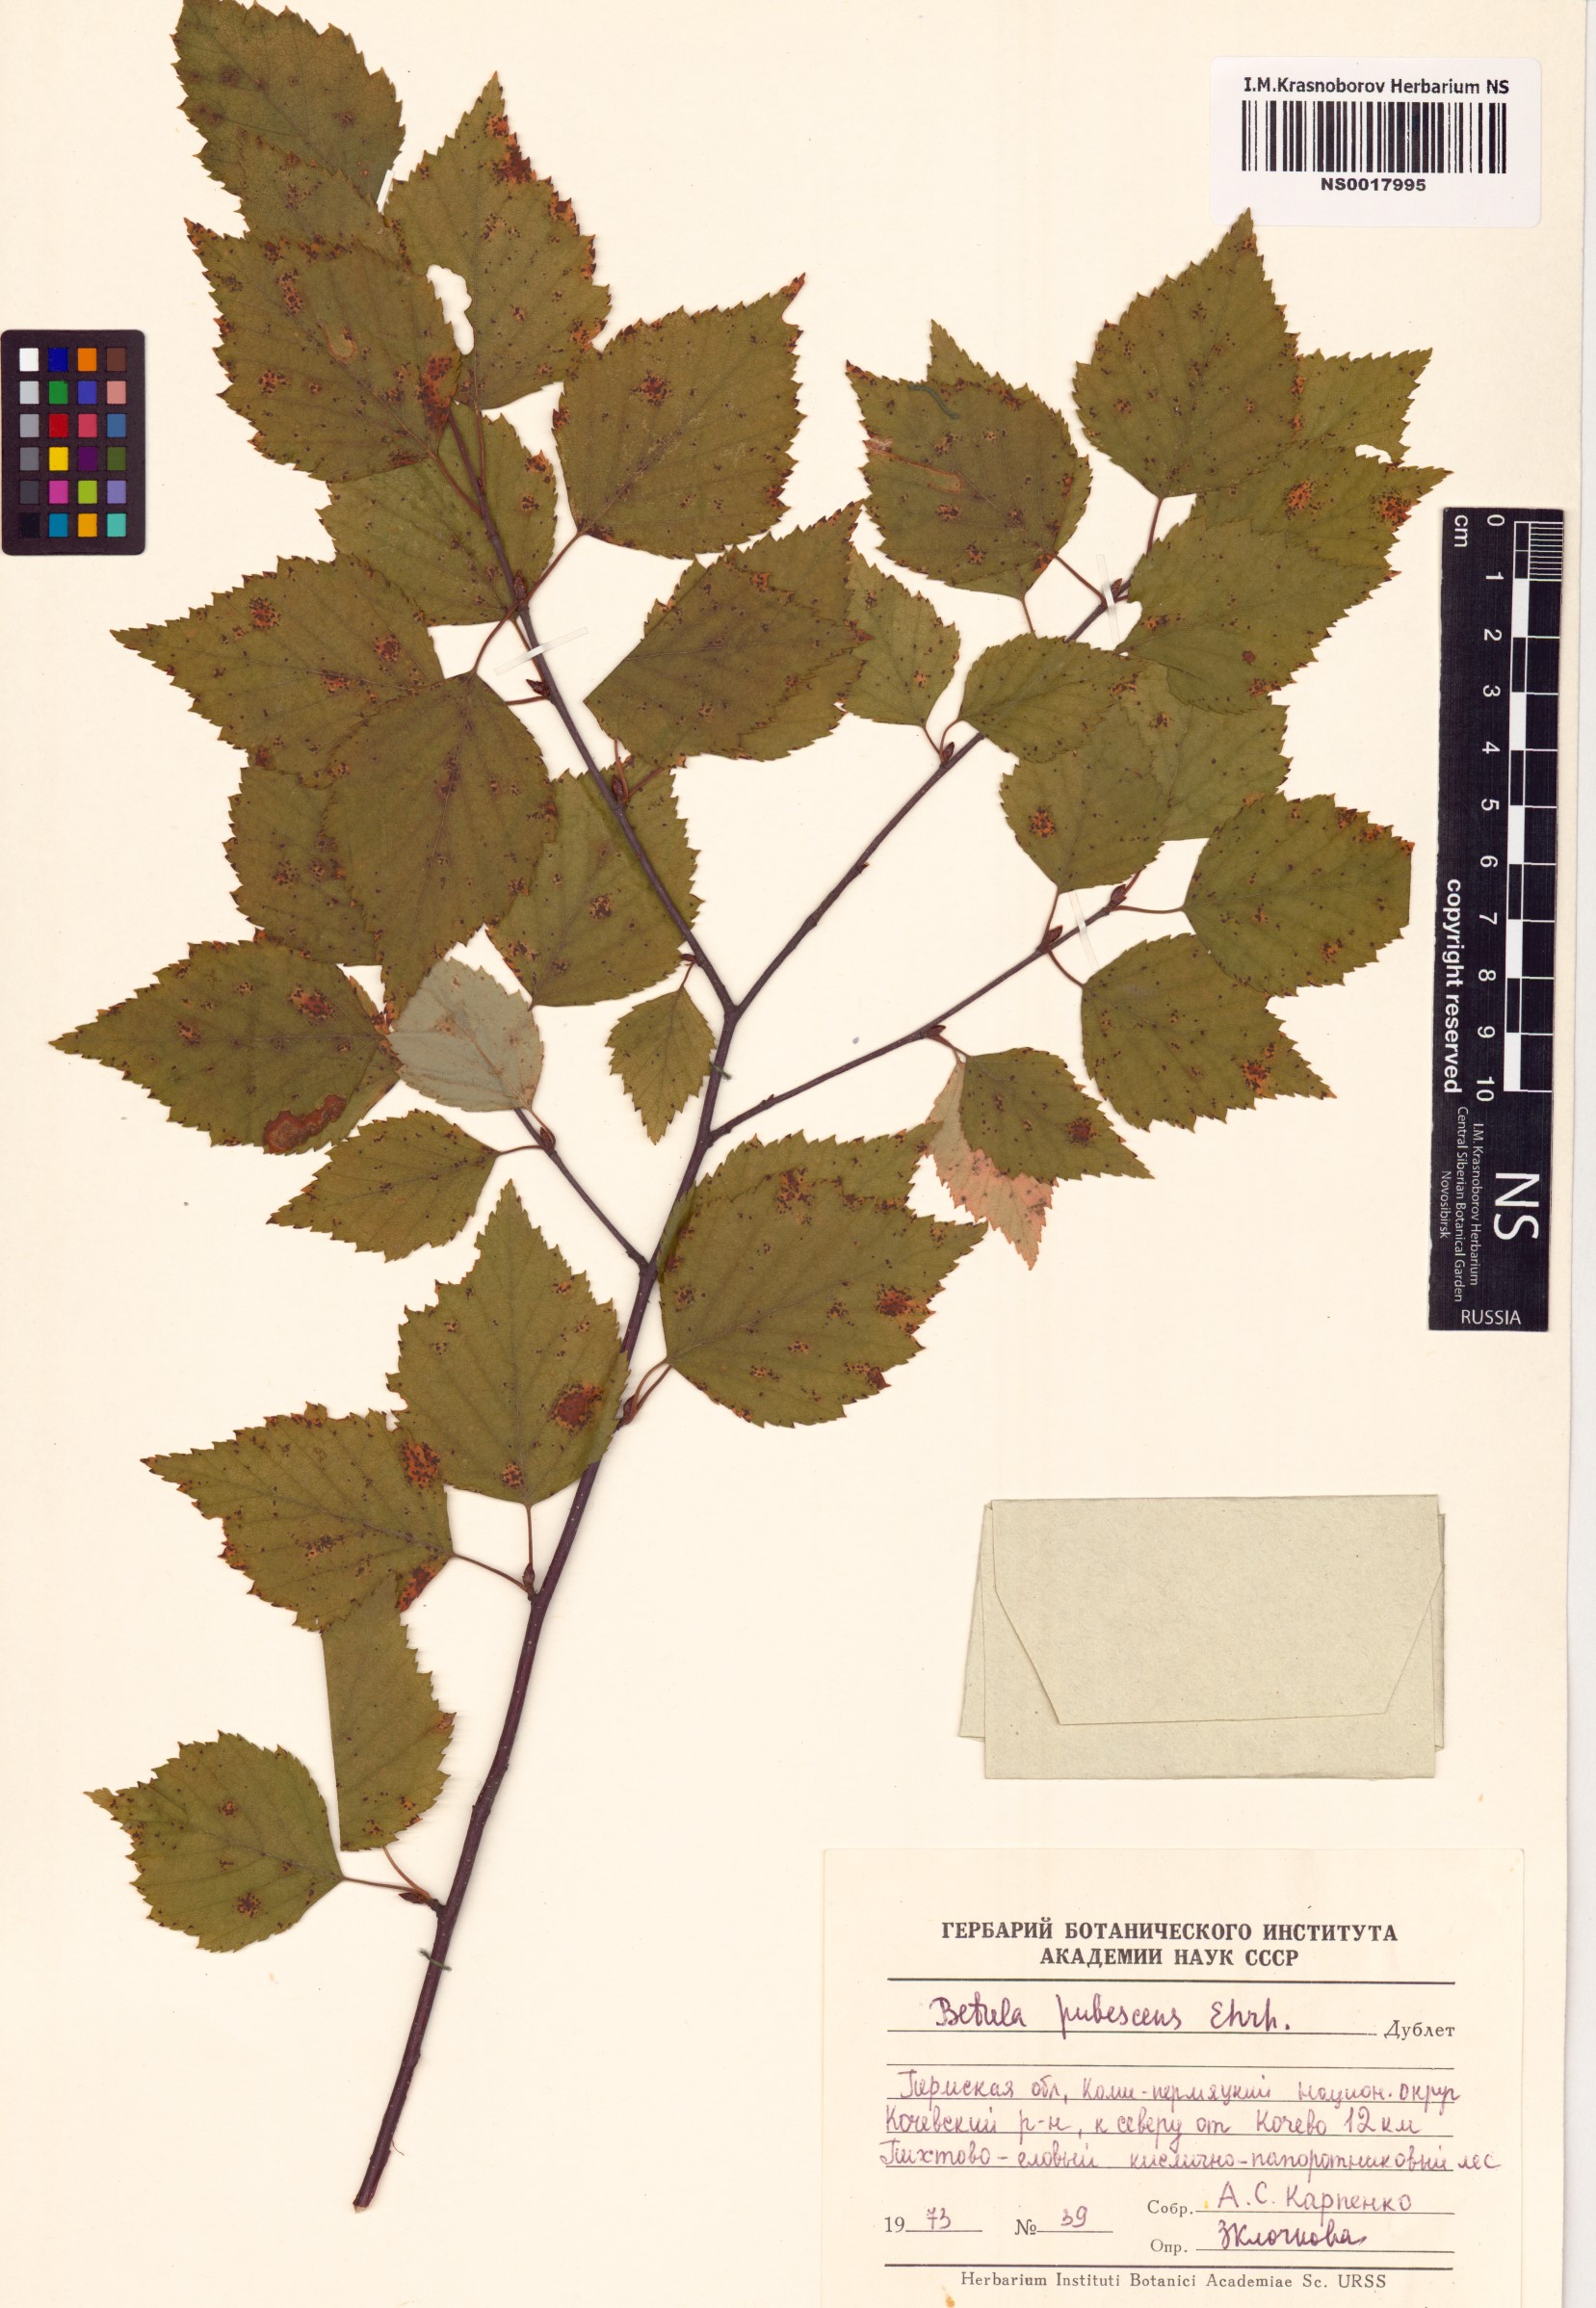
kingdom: Plantae
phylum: Tracheophyta
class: Magnoliopsida
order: Fagales
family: Betulaceae
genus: Betula
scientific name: Betula pubescens
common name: Downy birch
